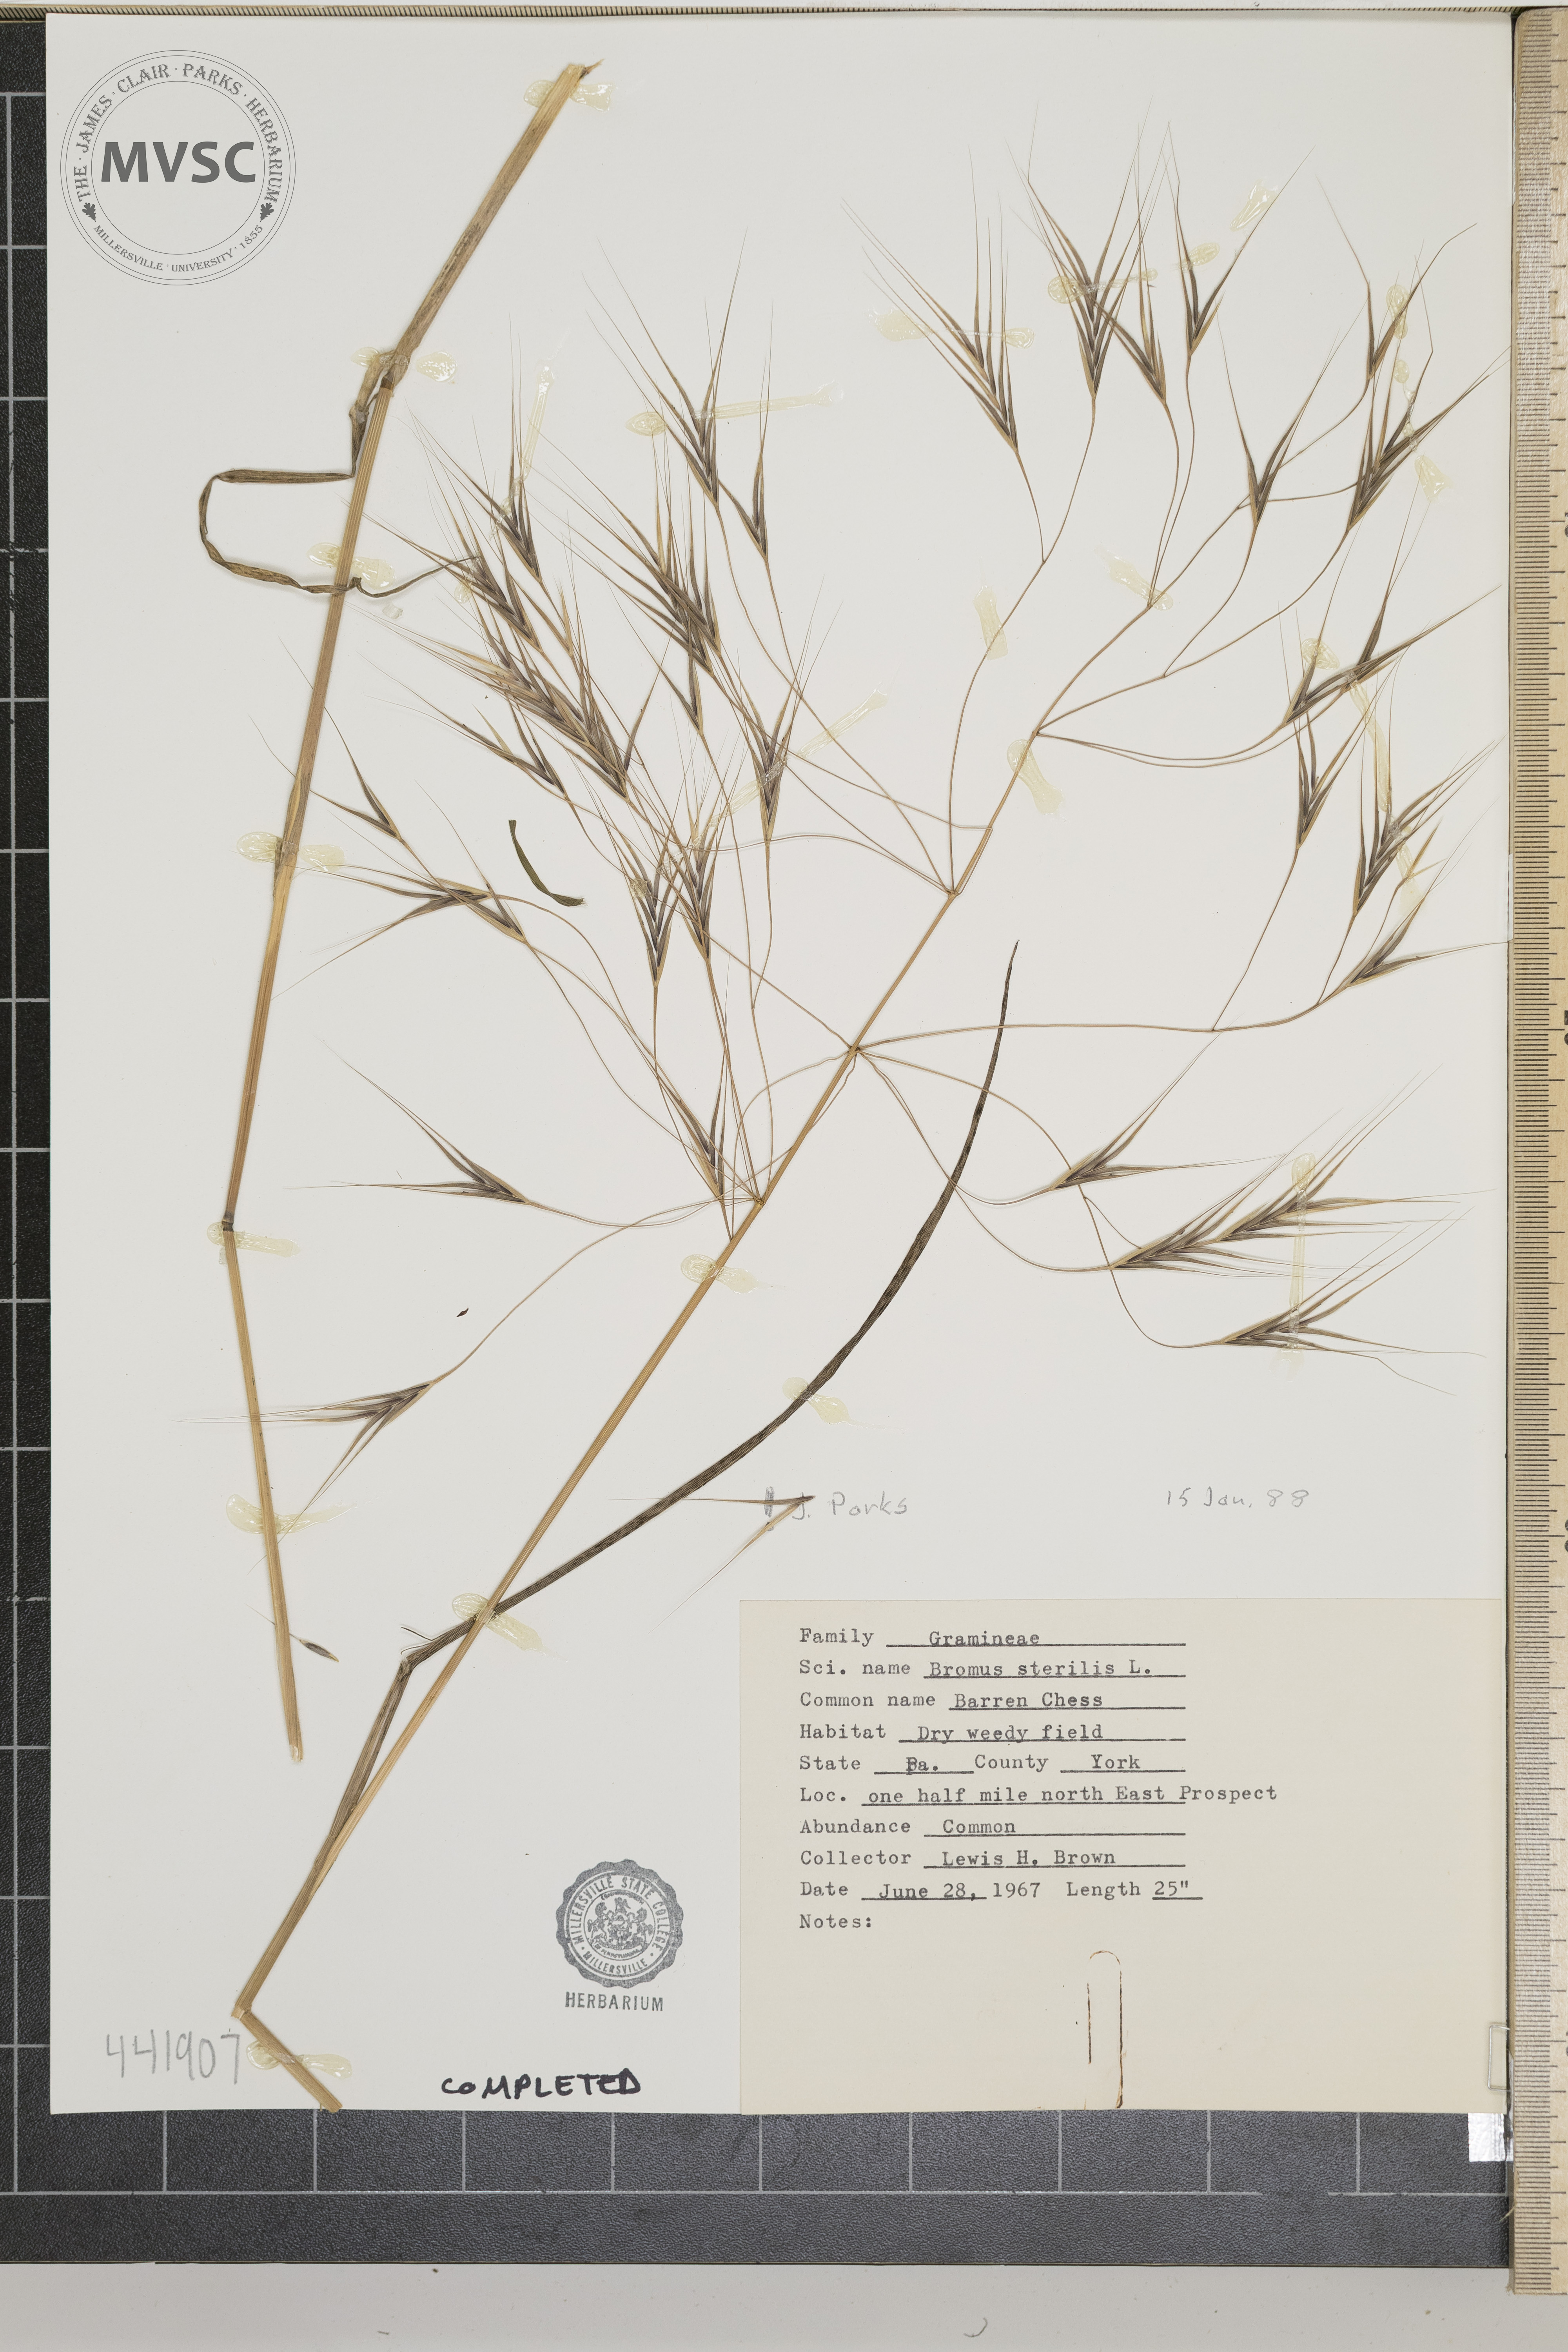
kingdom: Plantae
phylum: Tracheophyta
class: Liliopsida
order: Poales
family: Poaceae
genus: Bromus
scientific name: Bromus sterilis
